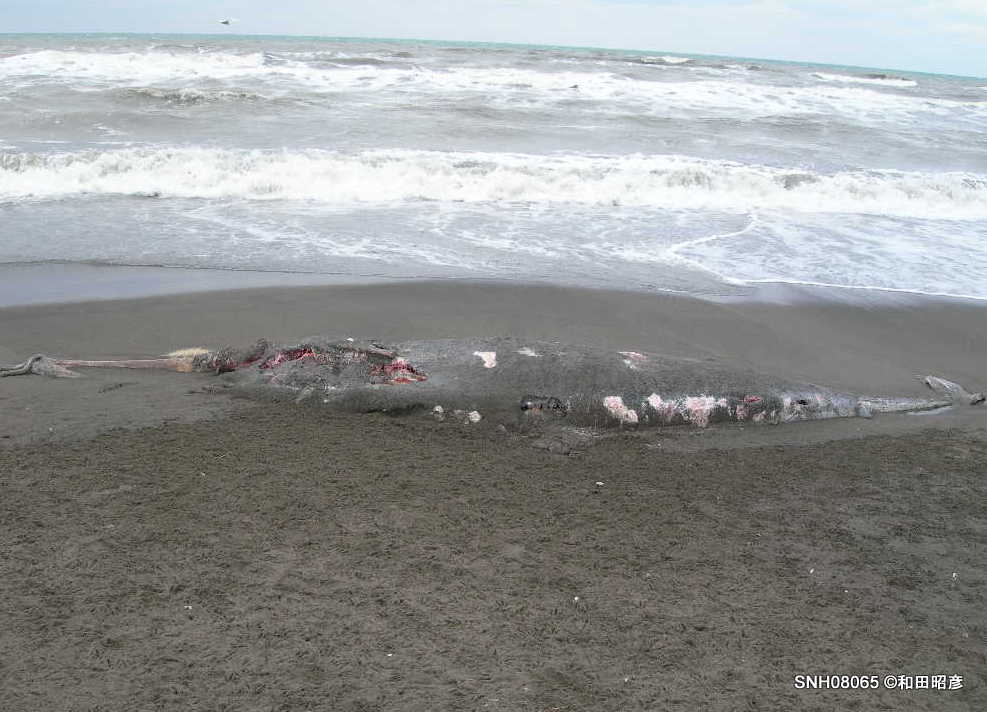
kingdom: Animalia
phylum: Chordata
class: Mammalia
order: Cetacea
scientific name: Cetacea
